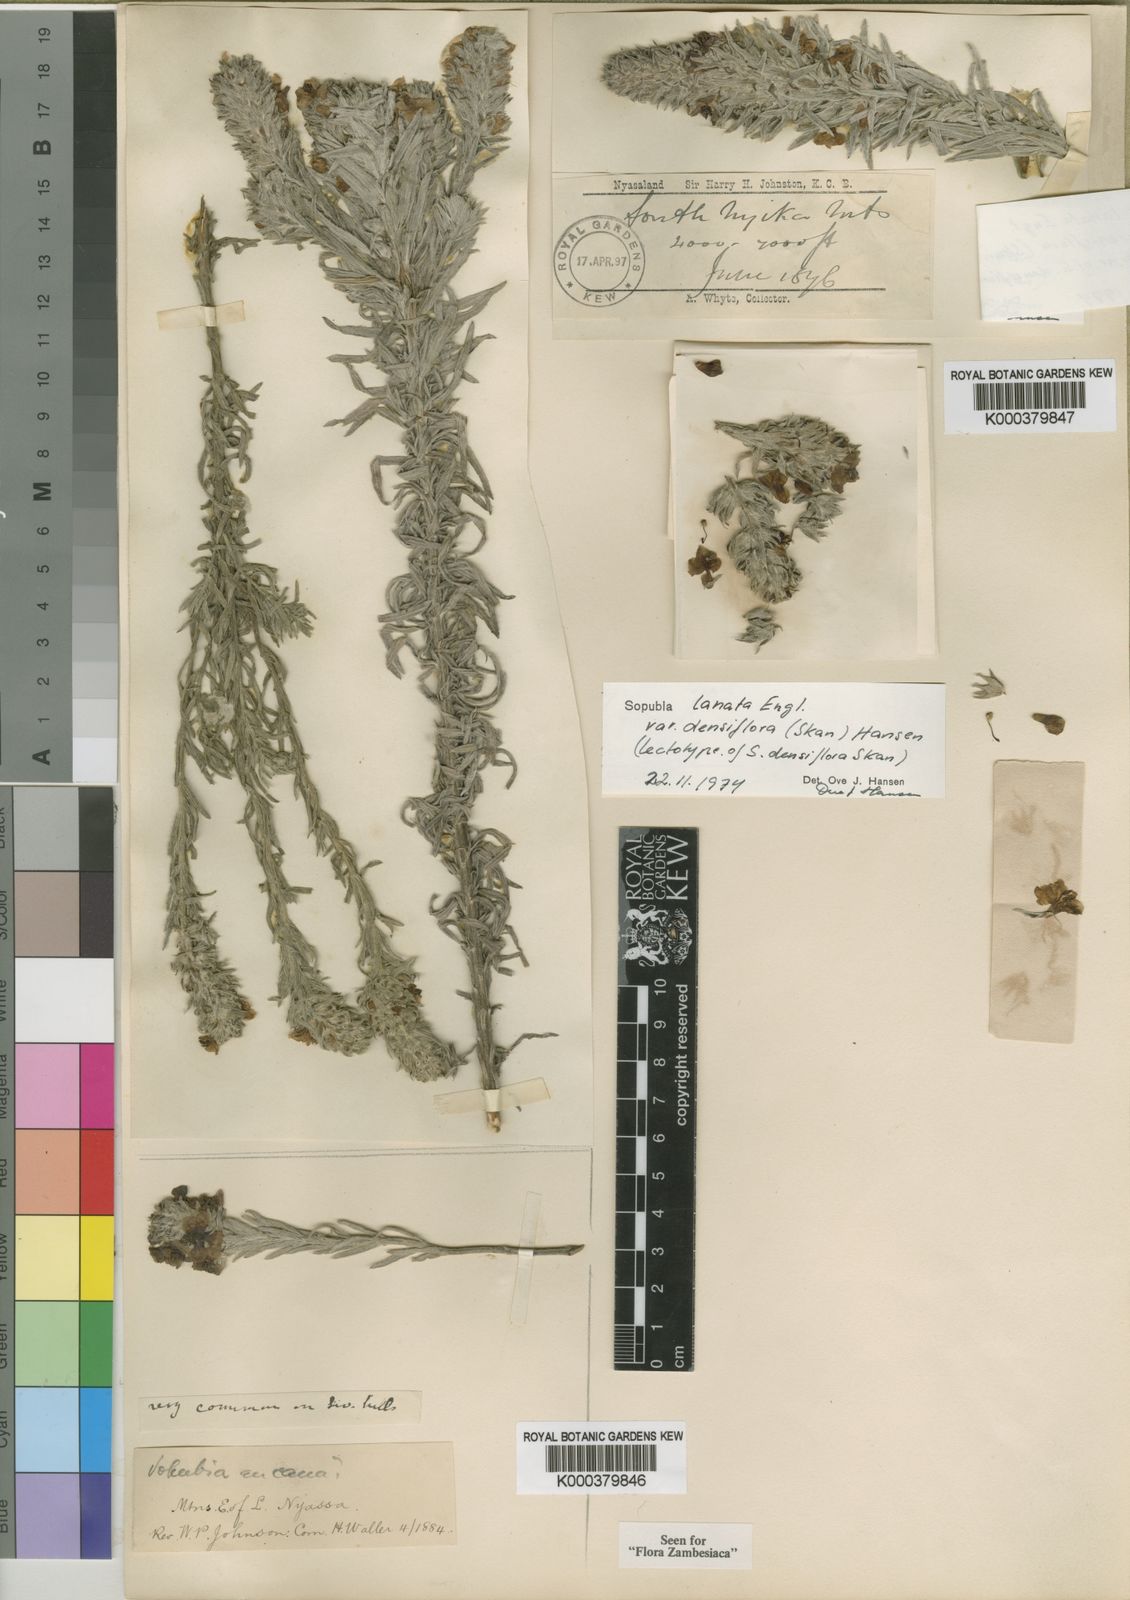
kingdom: Plantae
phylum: Tracheophyta
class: Magnoliopsida
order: Lamiales
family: Orobanchaceae
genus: Sopubia
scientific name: Sopubia lanata
